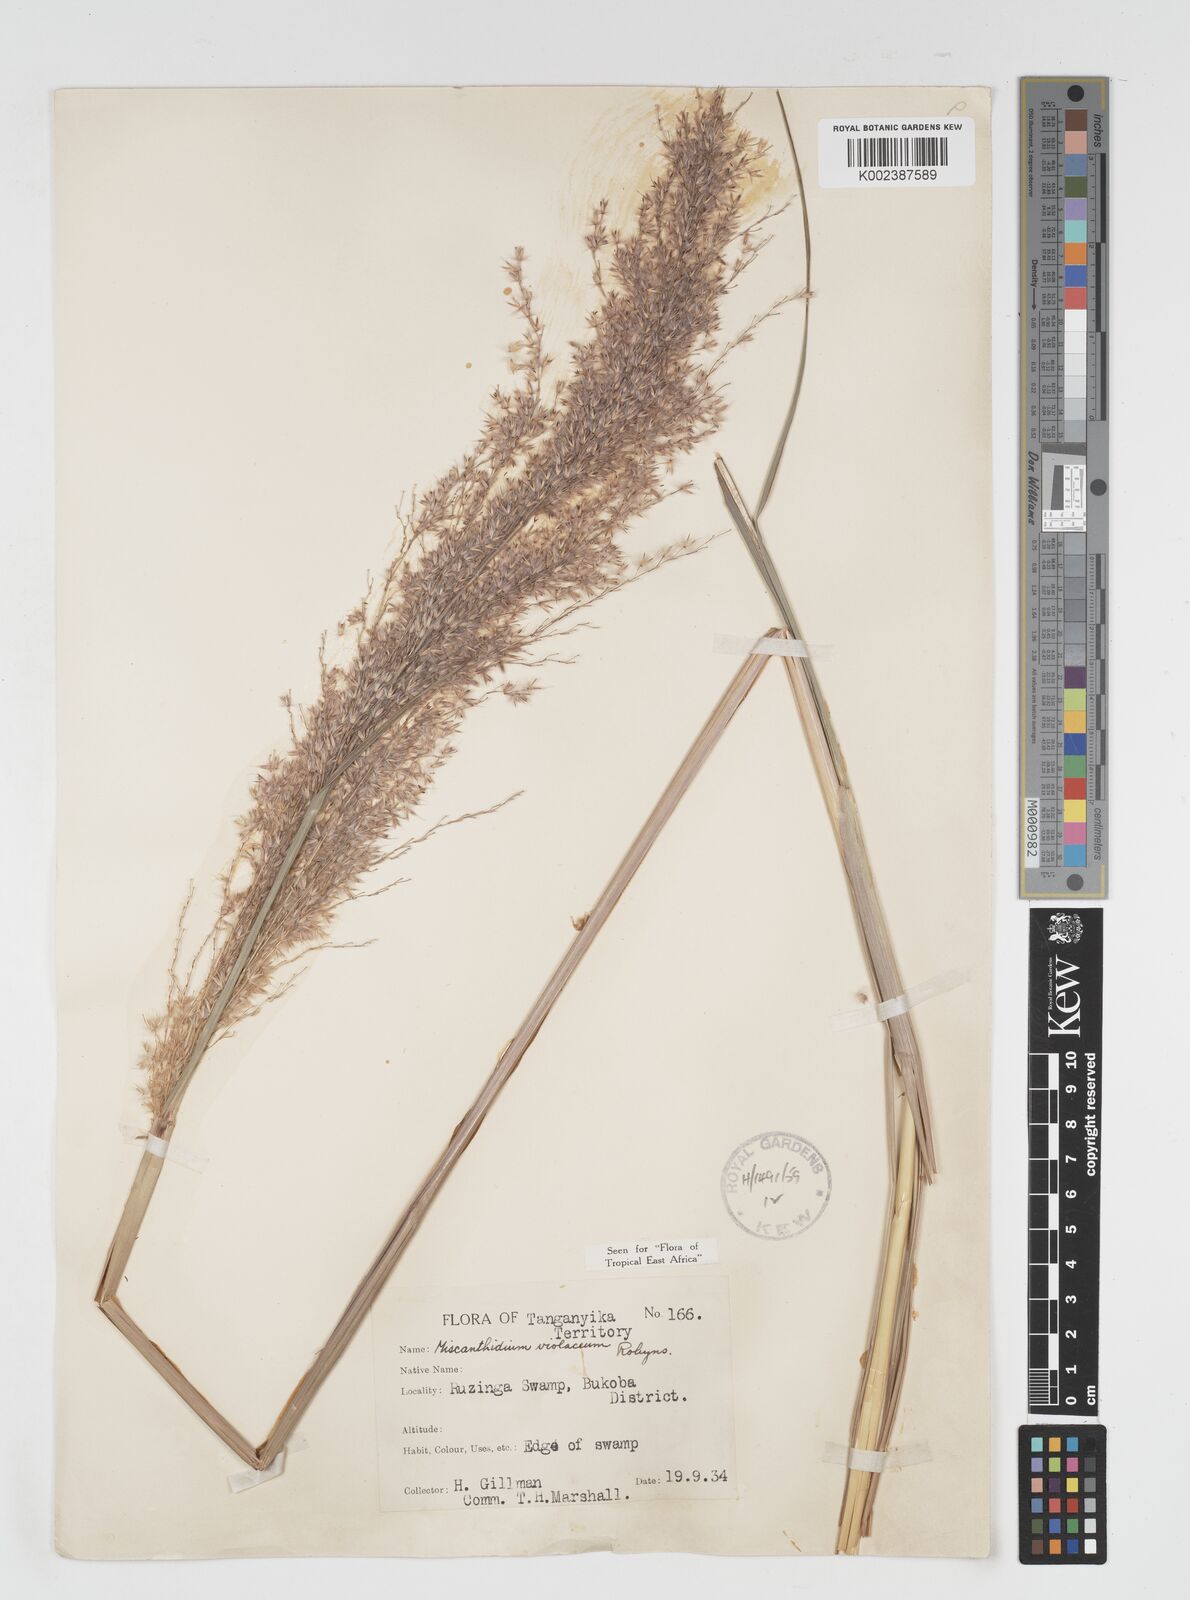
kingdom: Plantae
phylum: Tracheophyta
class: Liliopsida
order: Poales
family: Poaceae
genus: Miscanthidium
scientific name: Miscanthidium violaceum
